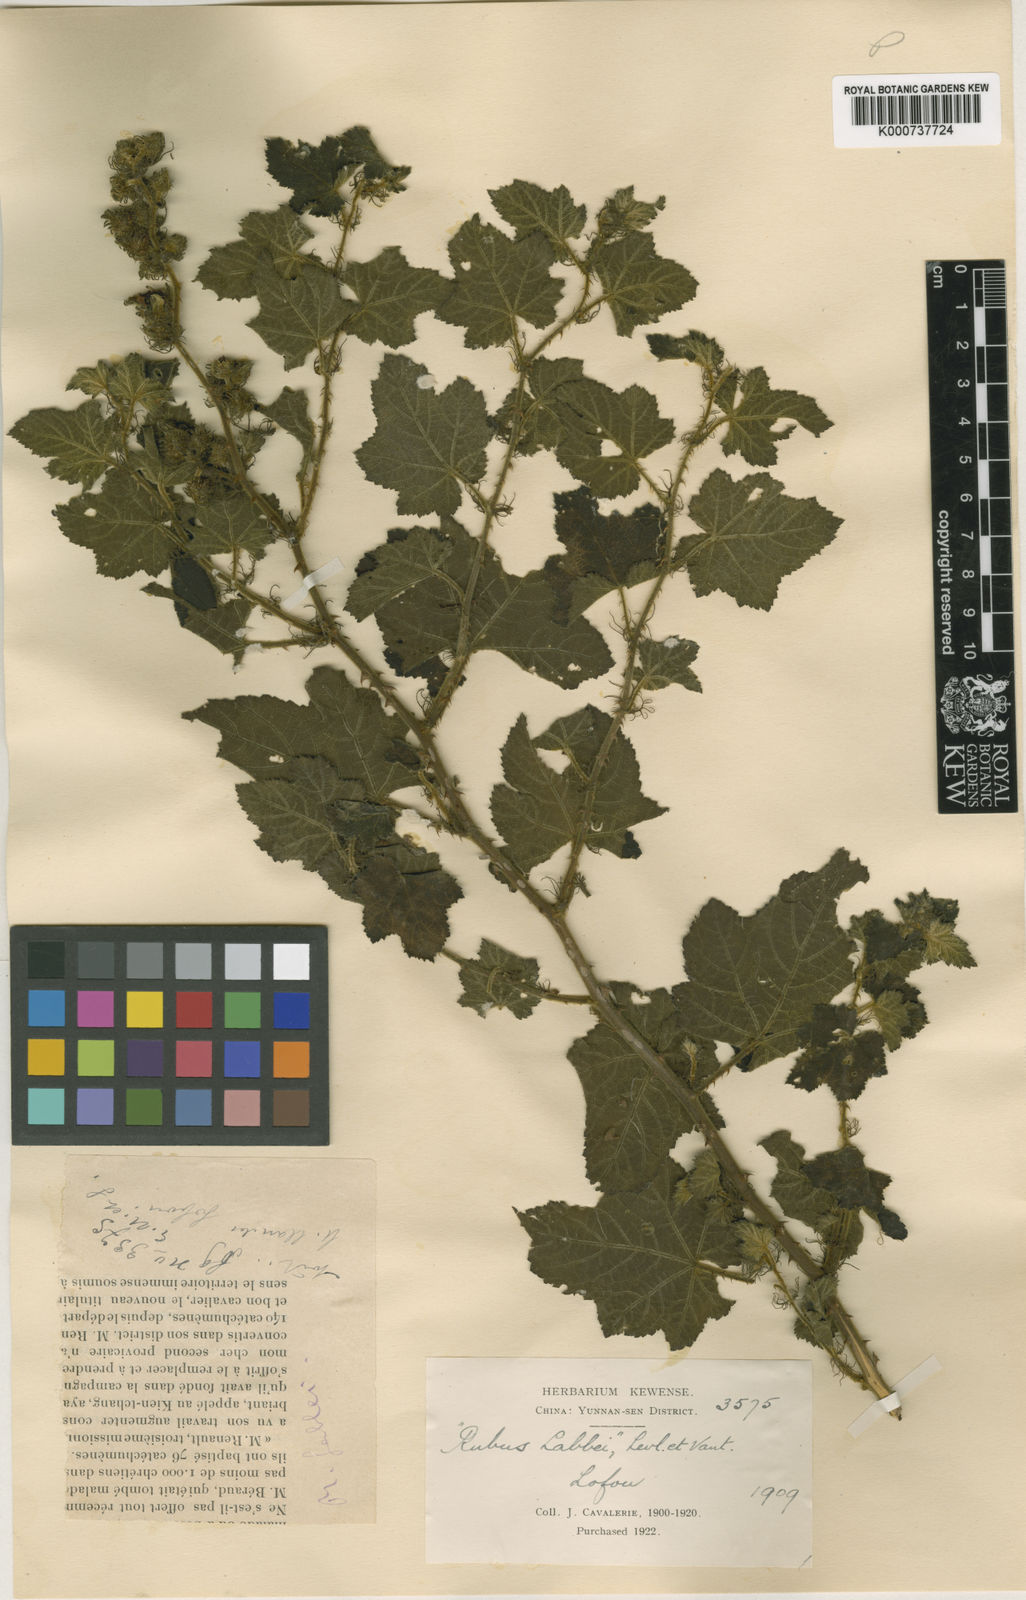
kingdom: Plantae
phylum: Tracheophyta
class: Magnoliopsida
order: Rosales
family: Rosaceae
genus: Rubus
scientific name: Rubus
